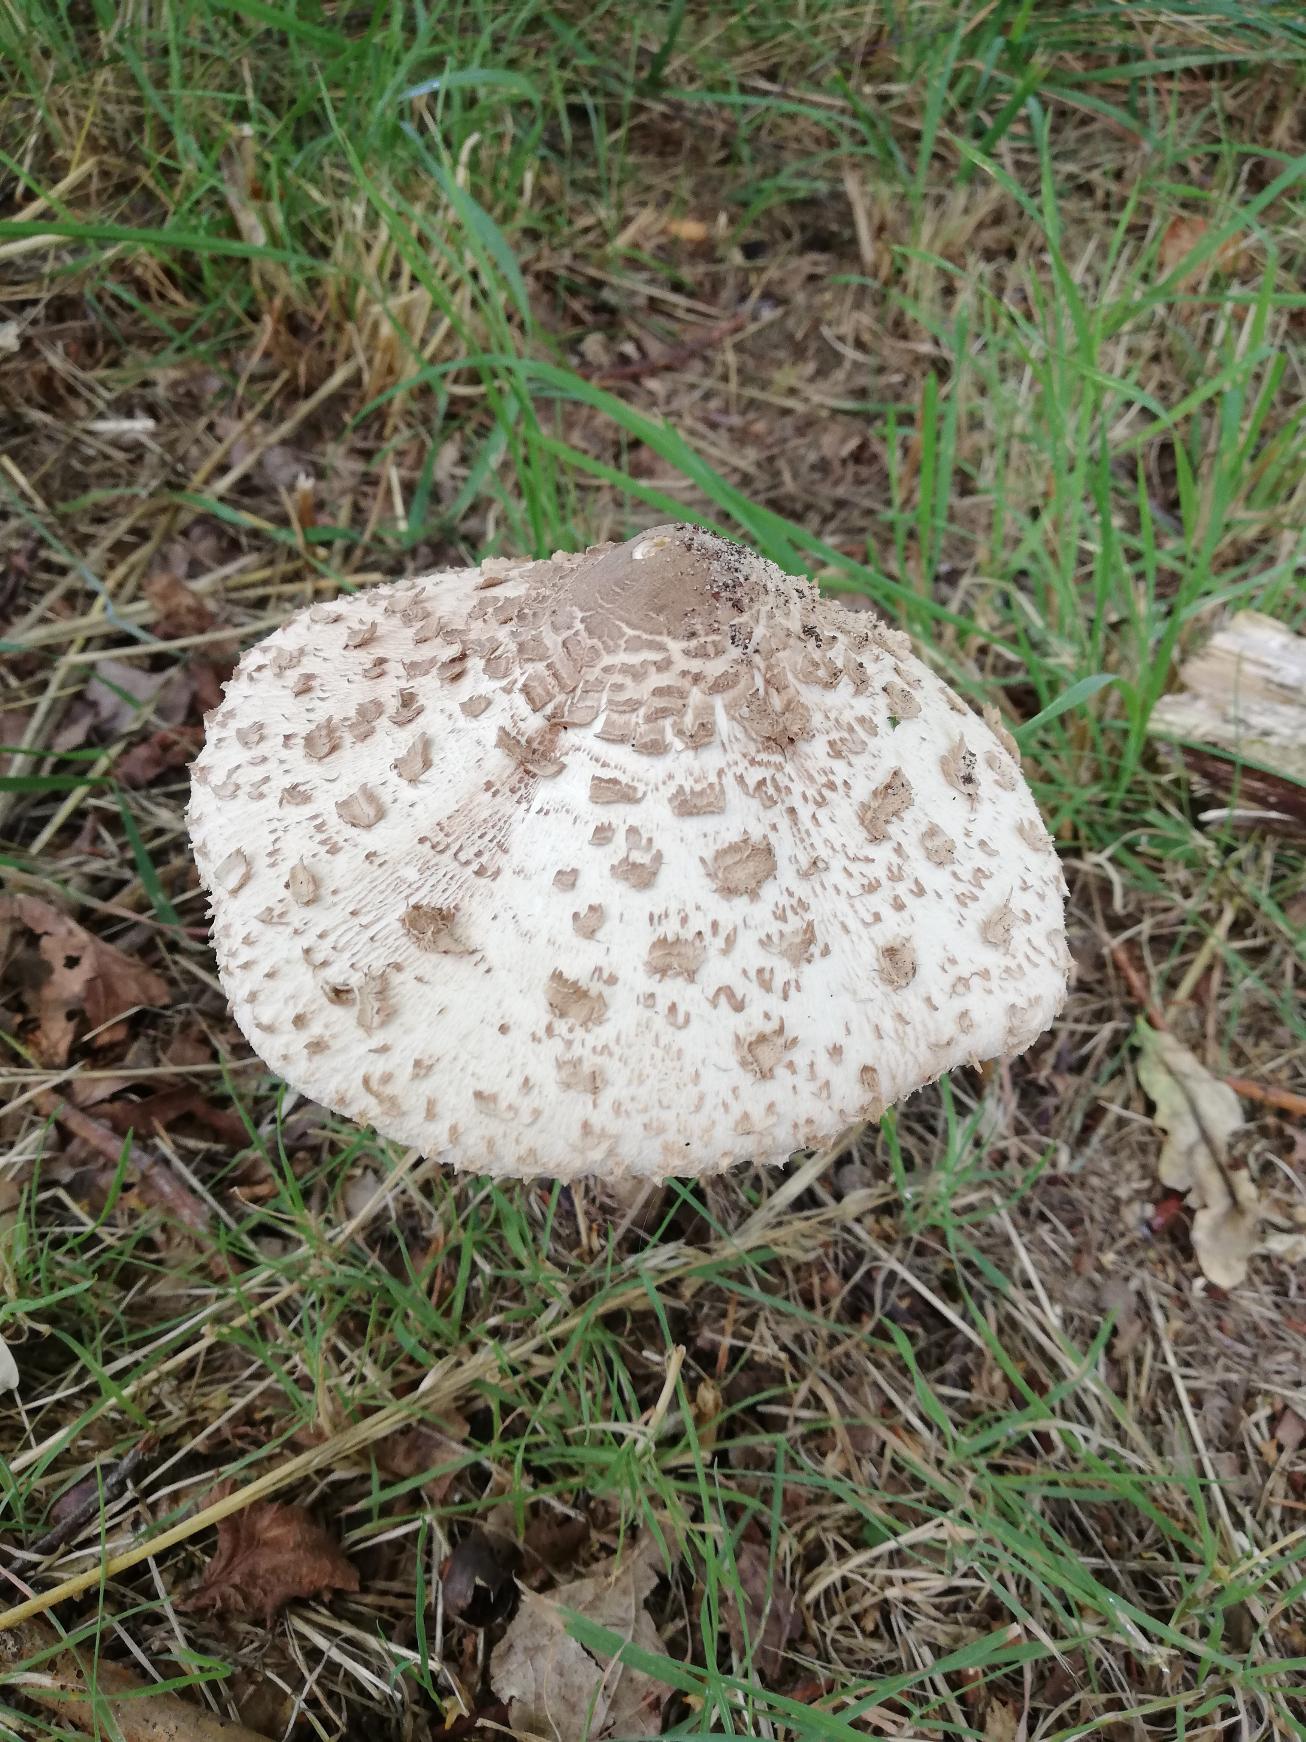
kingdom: Fungi
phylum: Basidiomycota
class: Agaricomycetes
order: Agaricales
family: Agaricaceae
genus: Macrolepiota
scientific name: Macrolepiota procera
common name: Stor kæmpeparasolhat
